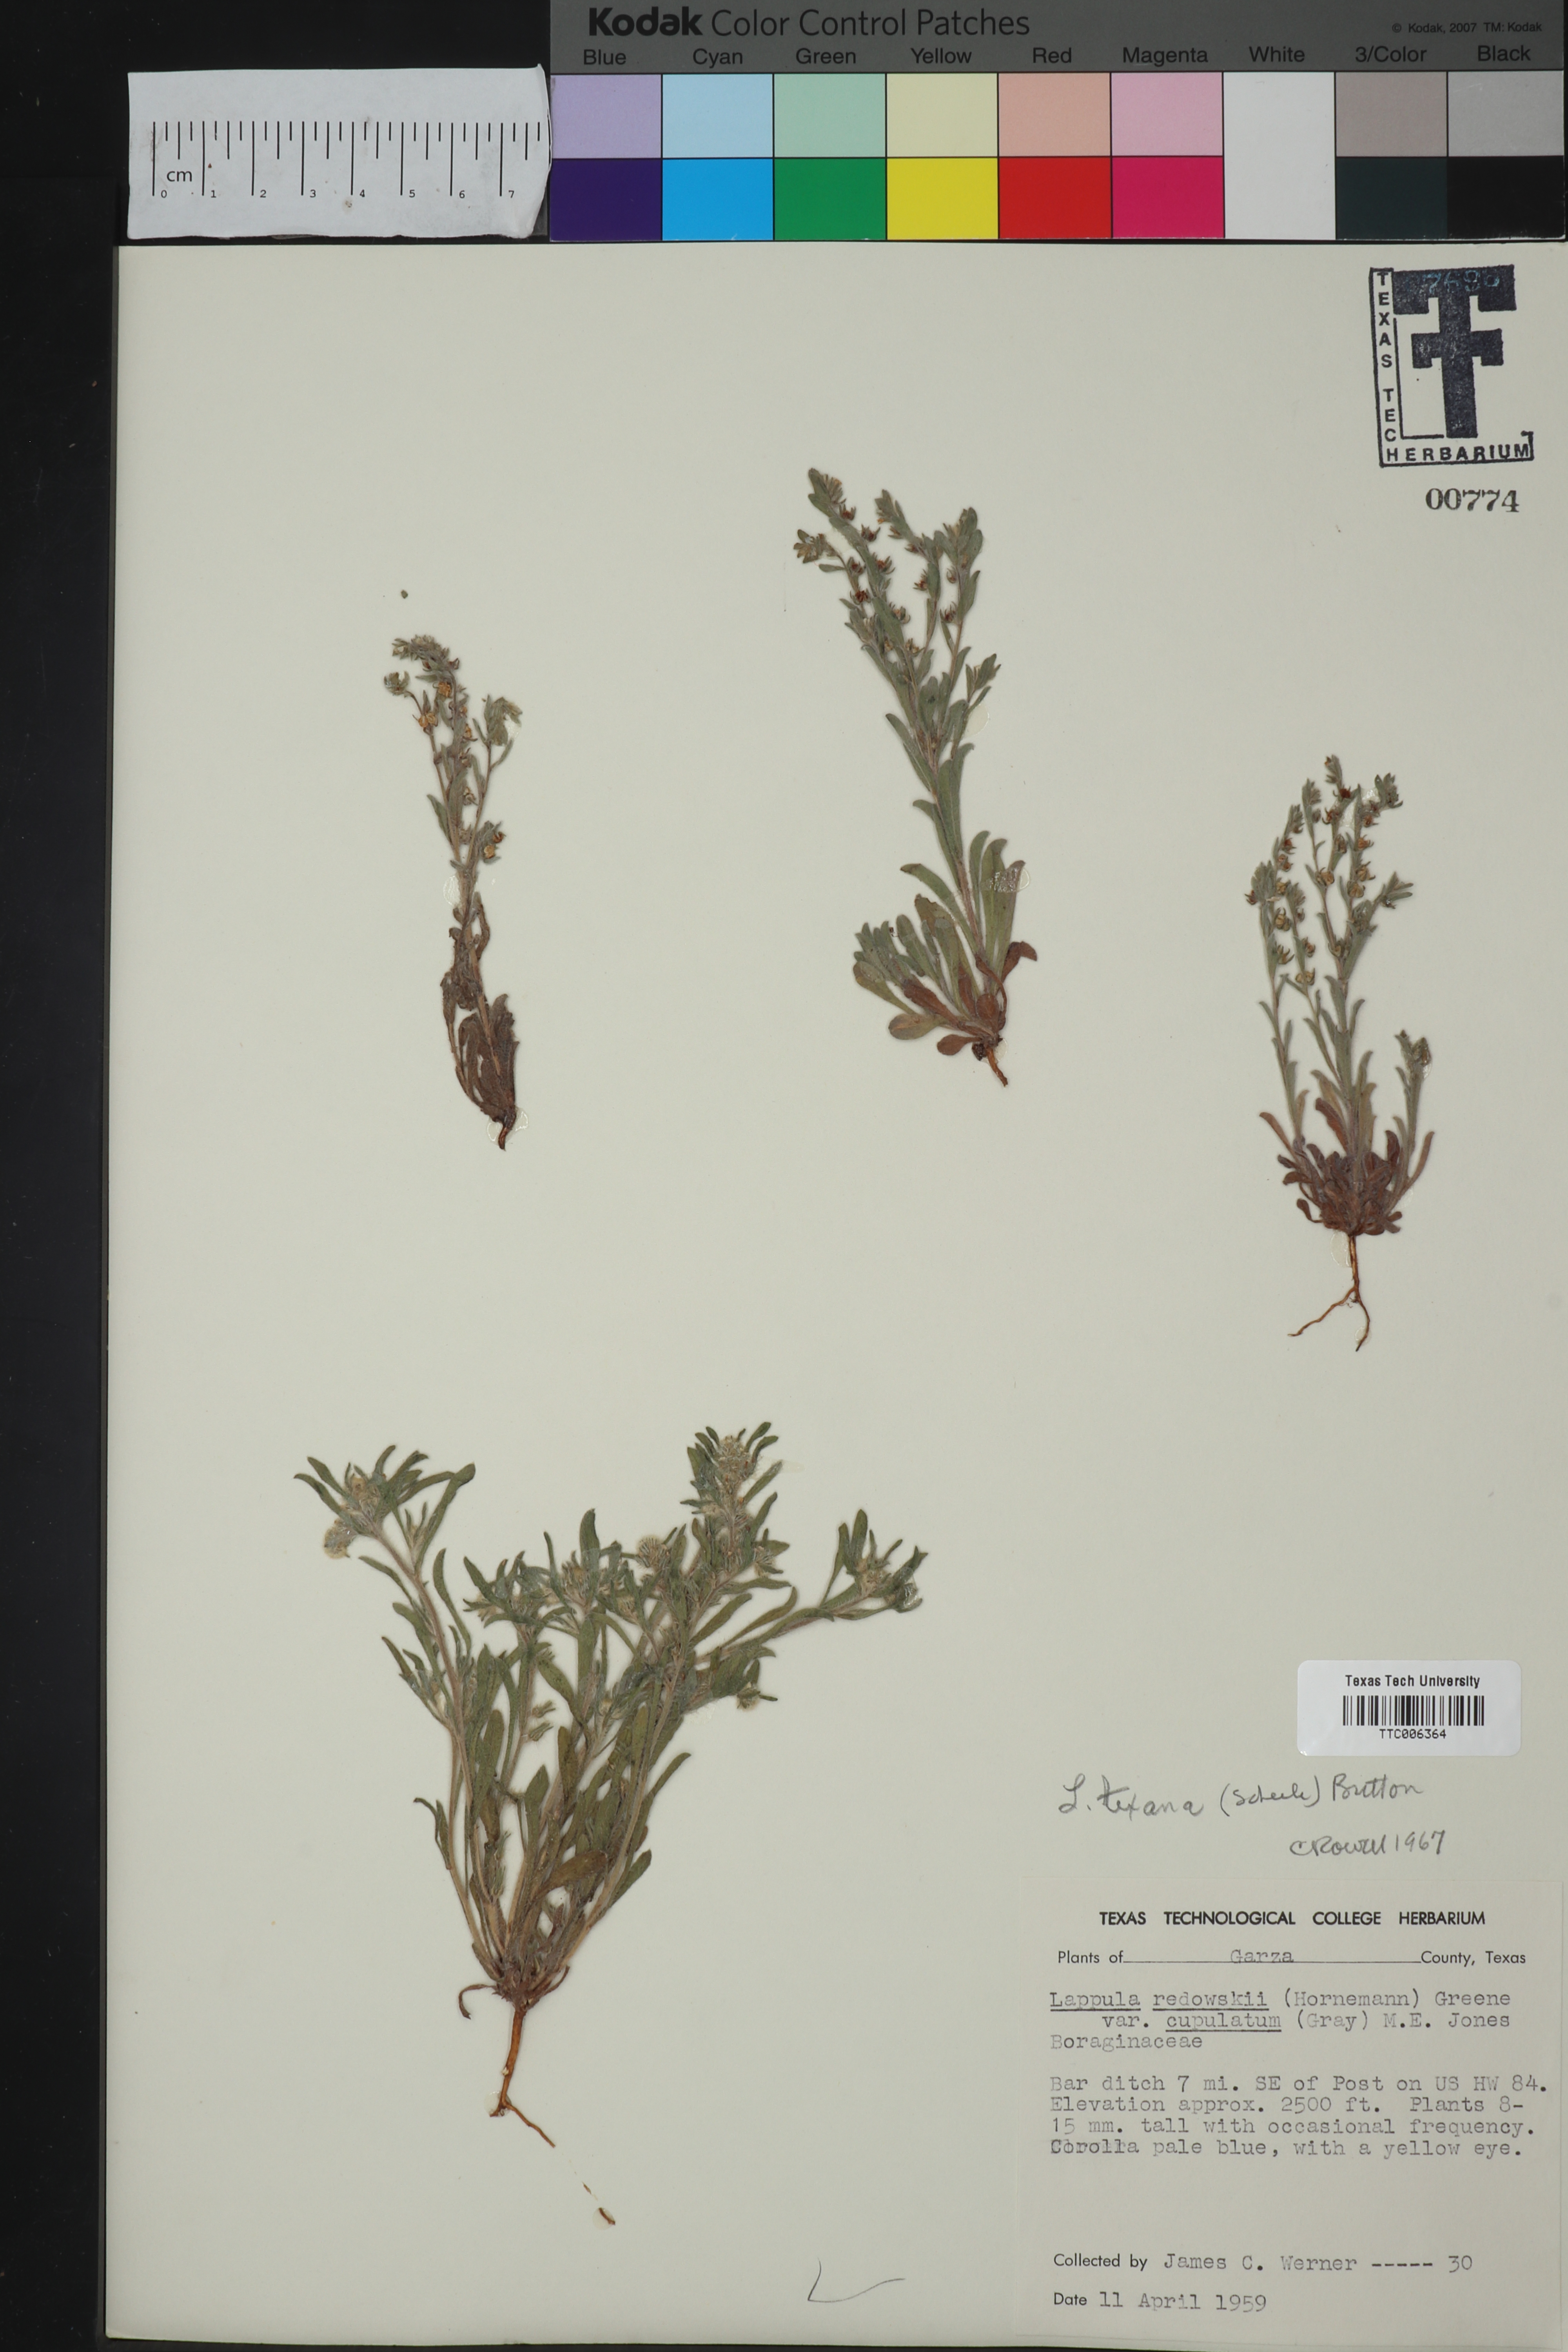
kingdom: Plantae
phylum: Tracheophyta
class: Magnoliopsida
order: Boraginales
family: Boraginaceae
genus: Lappula
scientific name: Lappula occidentalis
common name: Western stickseed
